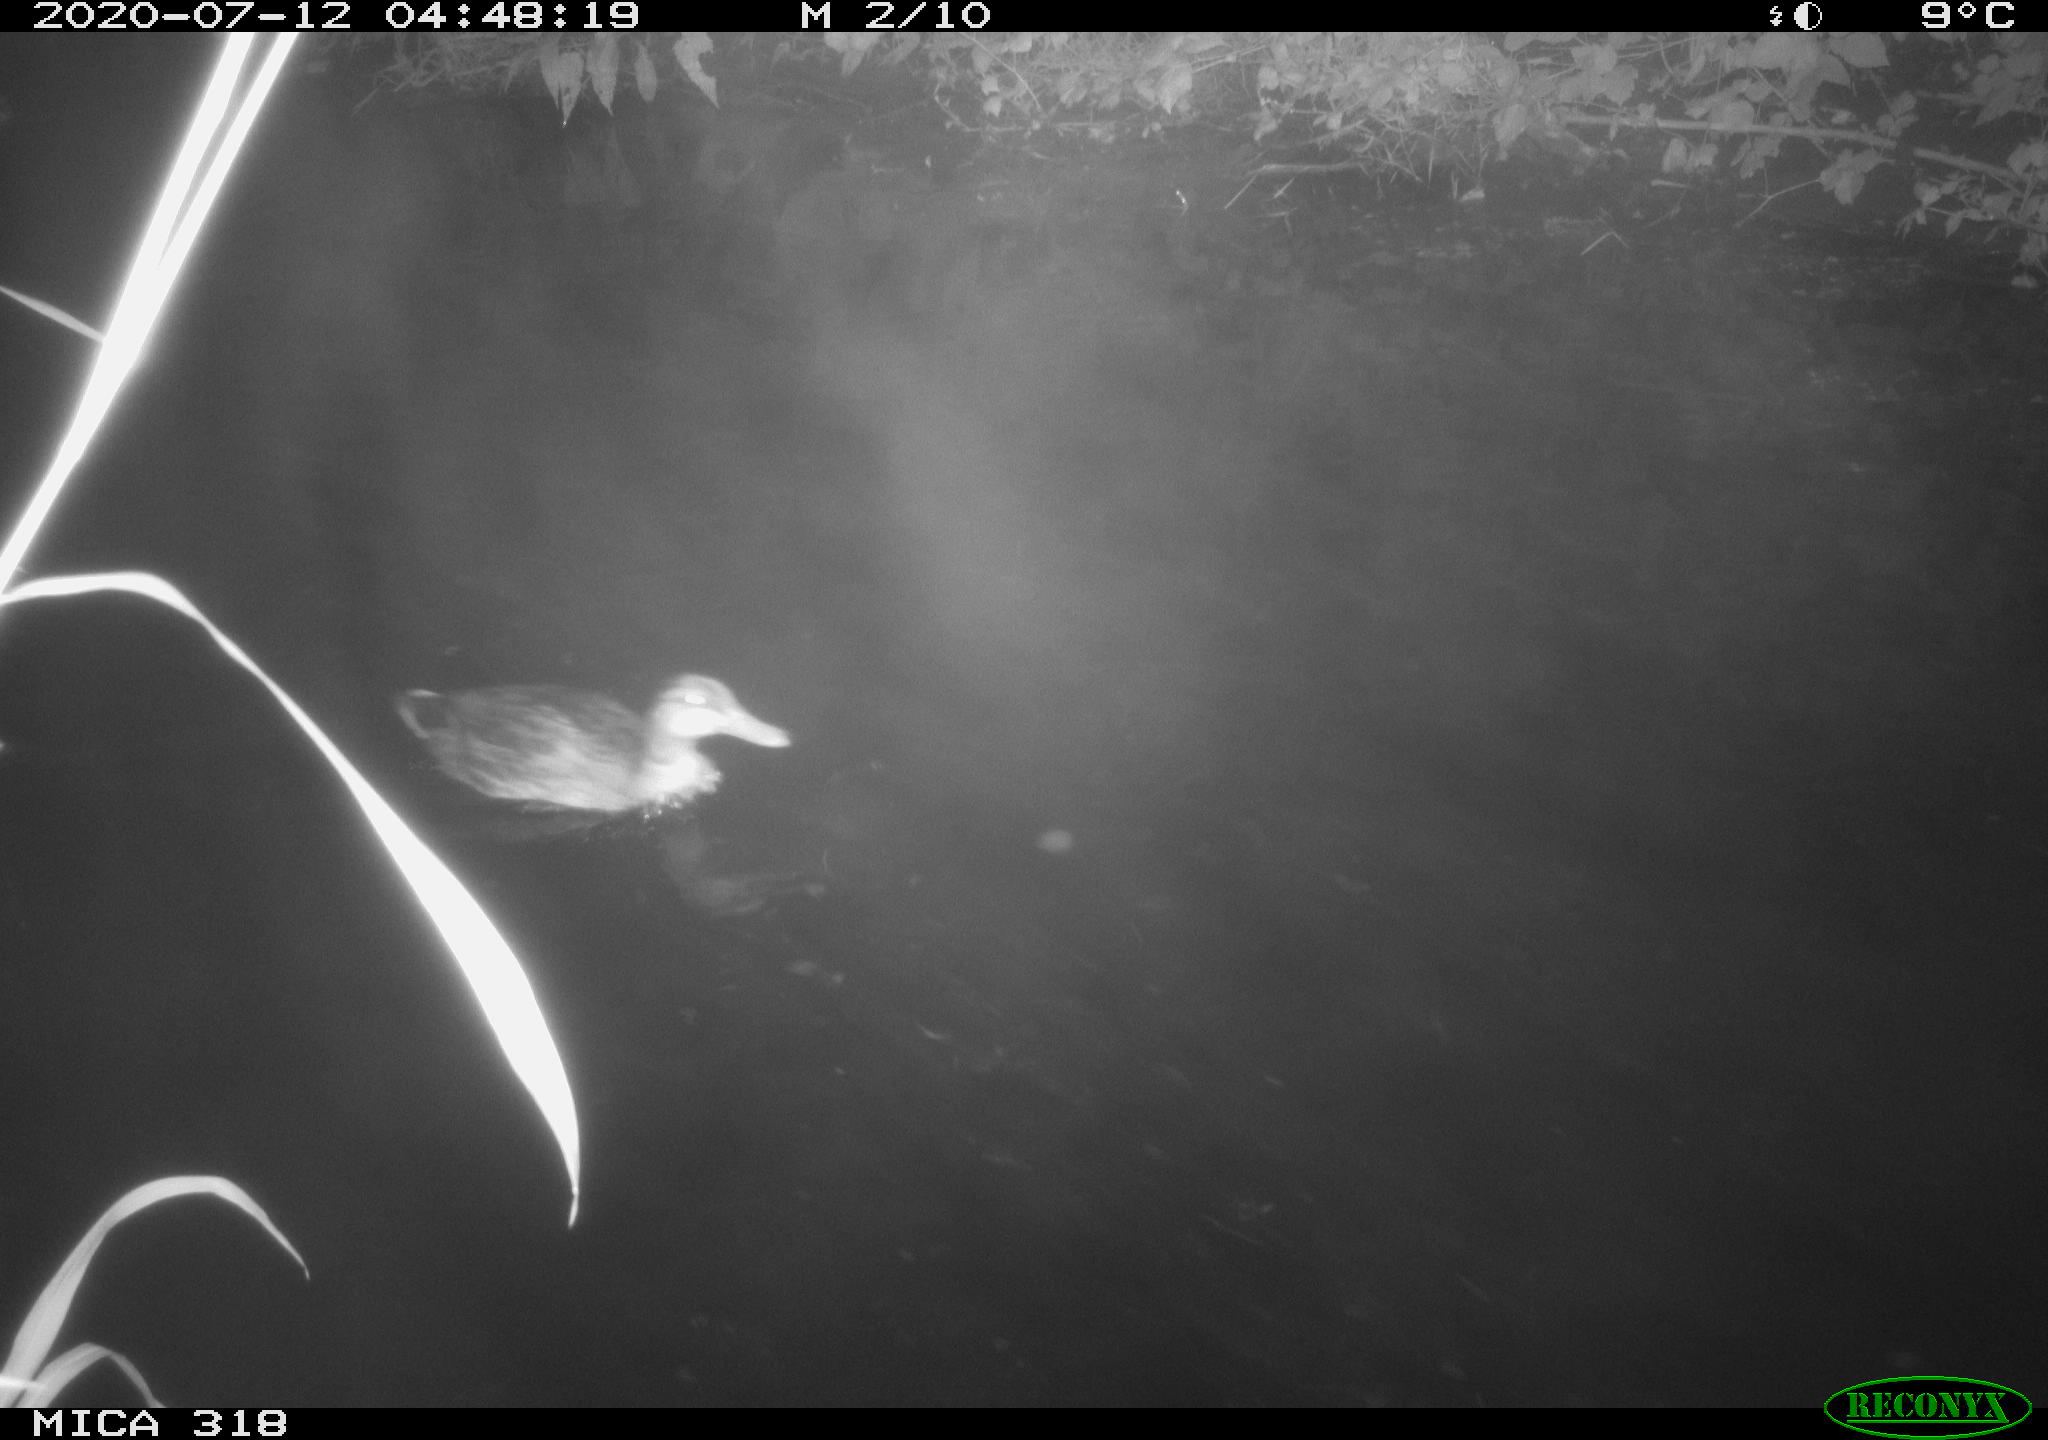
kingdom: Animalia
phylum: Chordata
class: Aves
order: Anseriformes
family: Anatidae
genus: Mareca
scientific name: Mareca strepera
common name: Gadwall
